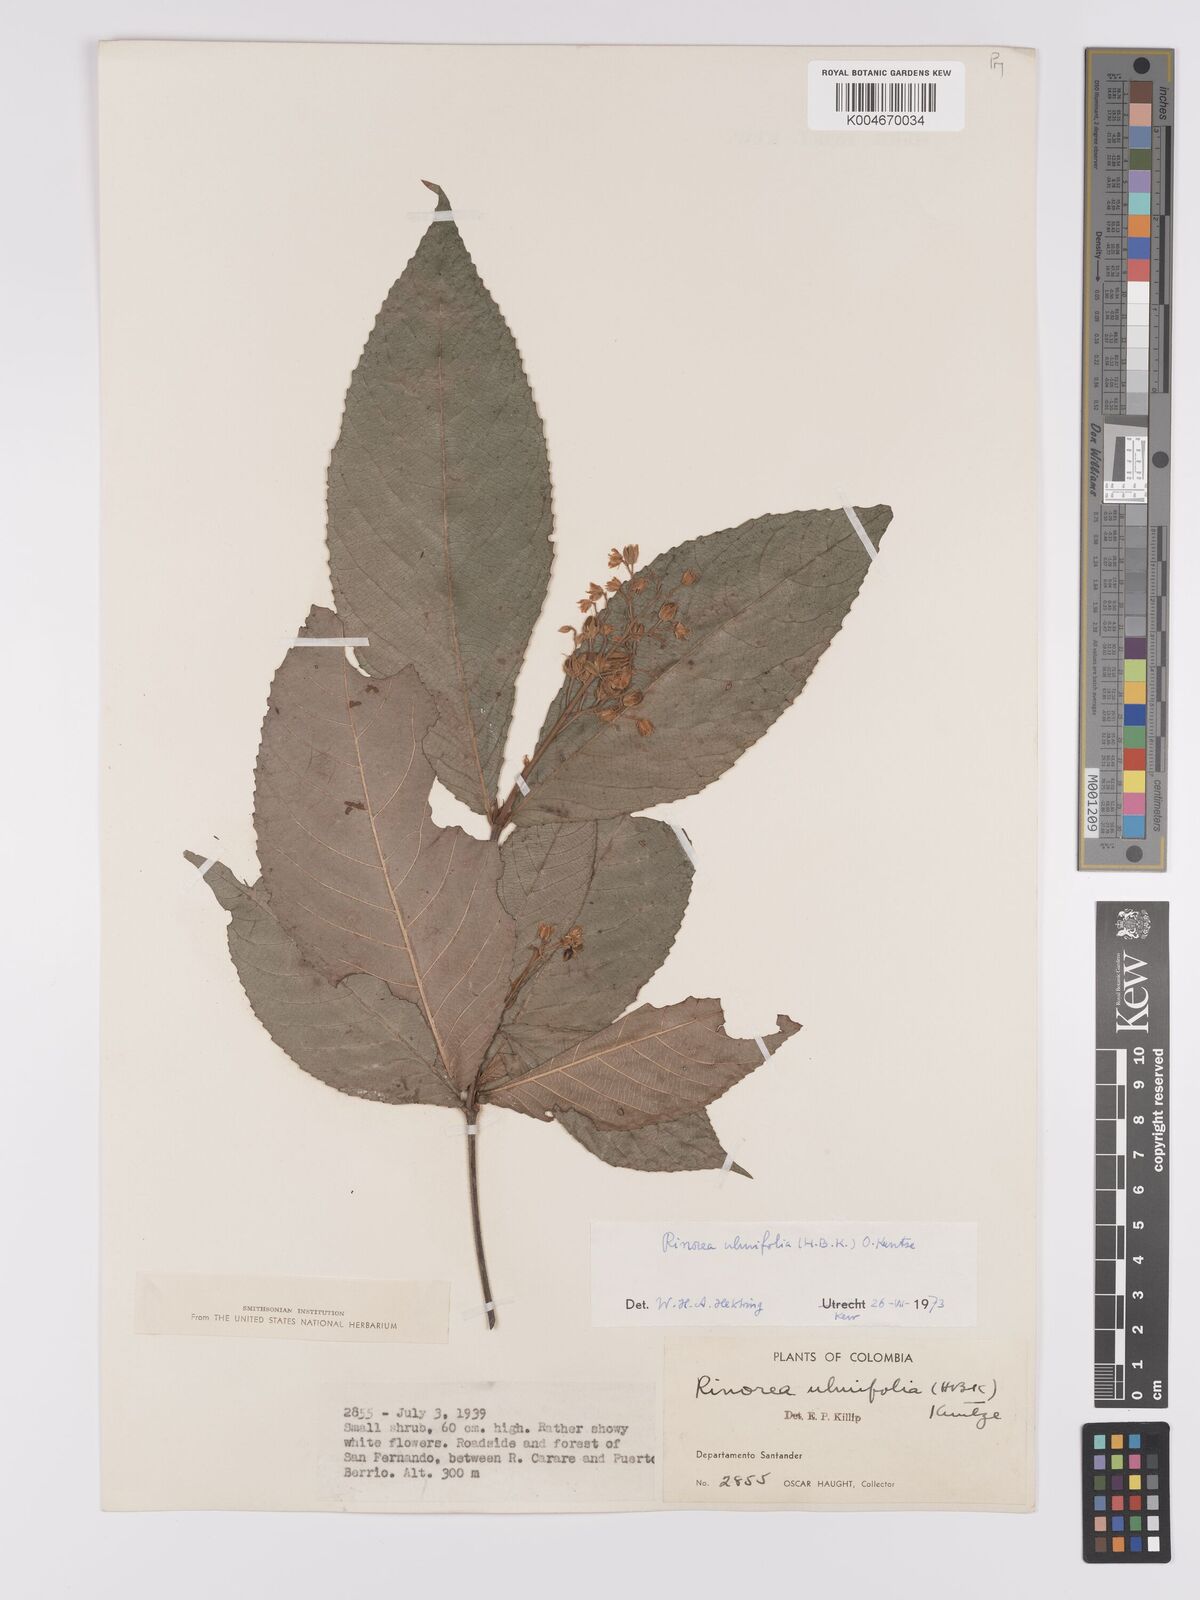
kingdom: Plantae
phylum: Tracheophyta
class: Magnoliopsida
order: Malpighiales
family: Violaceae
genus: Rinorea
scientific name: Rinorea ulmifolia
